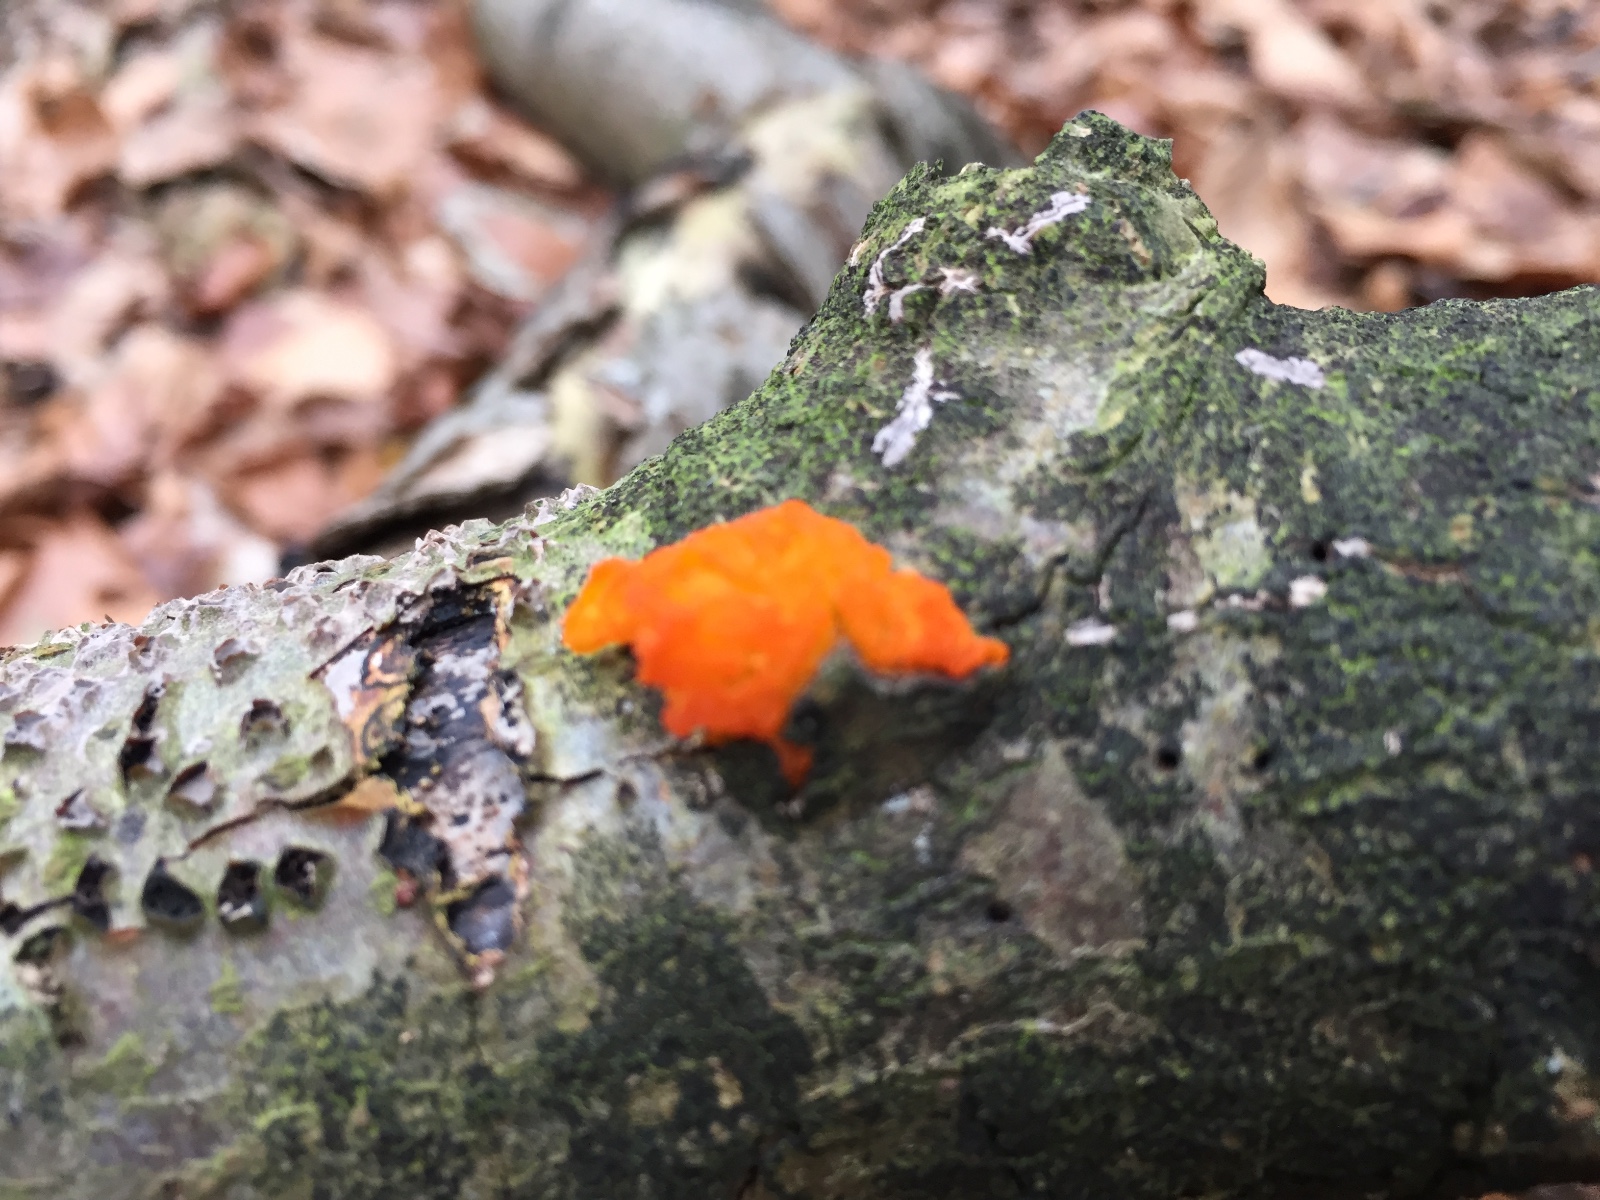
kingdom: Fungi
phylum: Basidiomycota
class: Tremellomycetes
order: Tremellales
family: Tremellaceae
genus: Tremella
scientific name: Tremella mesenterica
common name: gul bævresvamp
